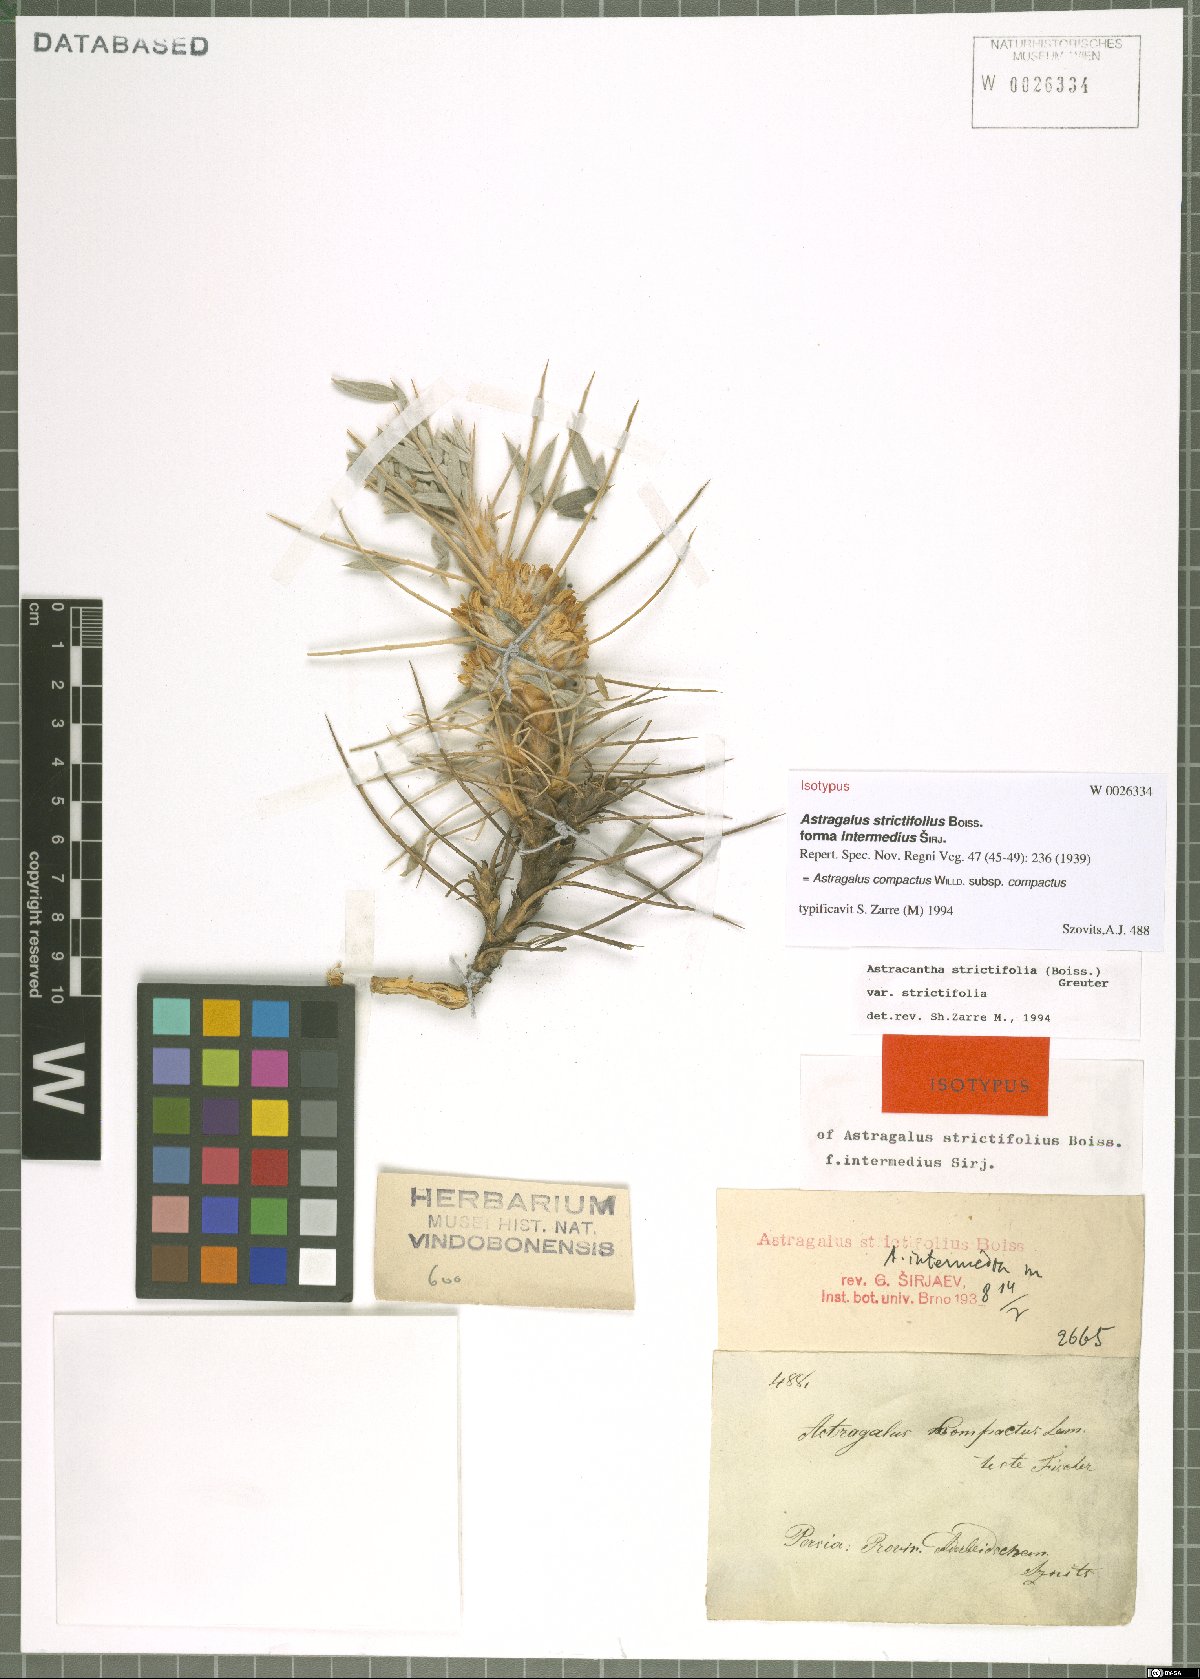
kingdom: Plantae
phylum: Tracheophyta
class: Magnoliopsida
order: Fabales
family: Fabaceae
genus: Astragalus
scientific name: Astragalus compactus
